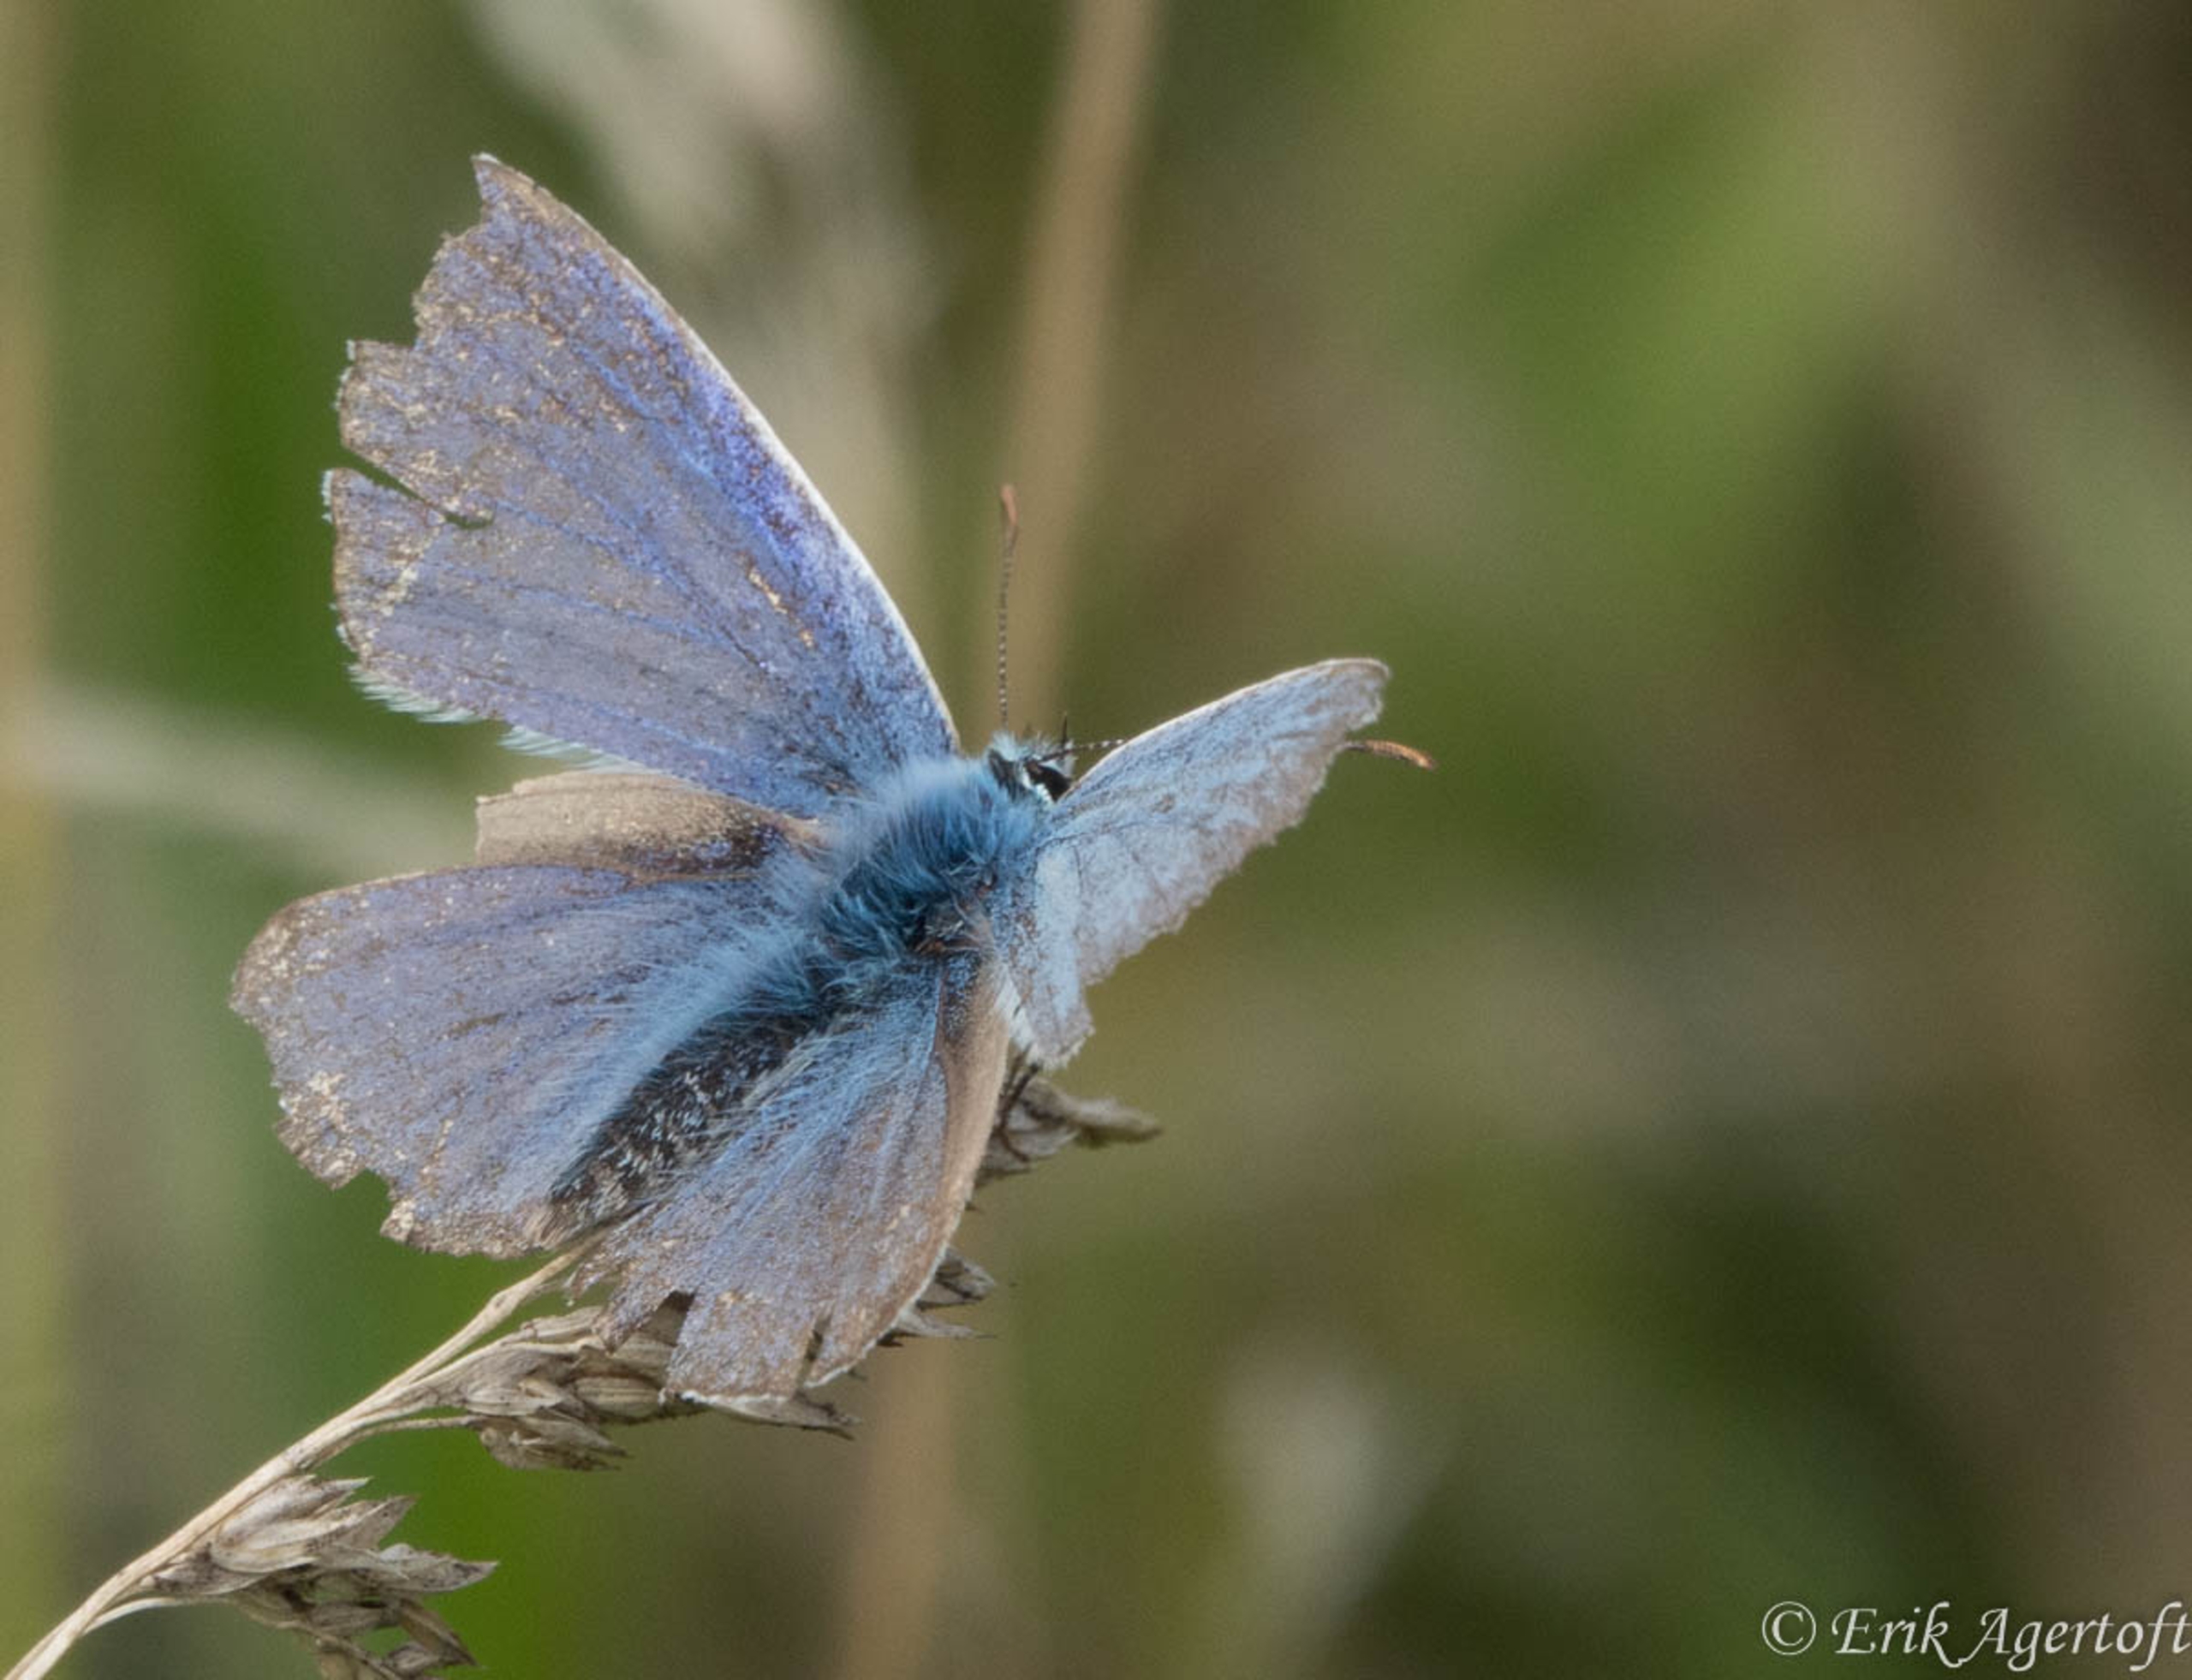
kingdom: Animalia
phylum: Arthropoda
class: Insecta
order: Lepidoptera
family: Lycaenidae
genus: Polyommatus
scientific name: Polyommatus icarus
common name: Almindelig blåfugl
